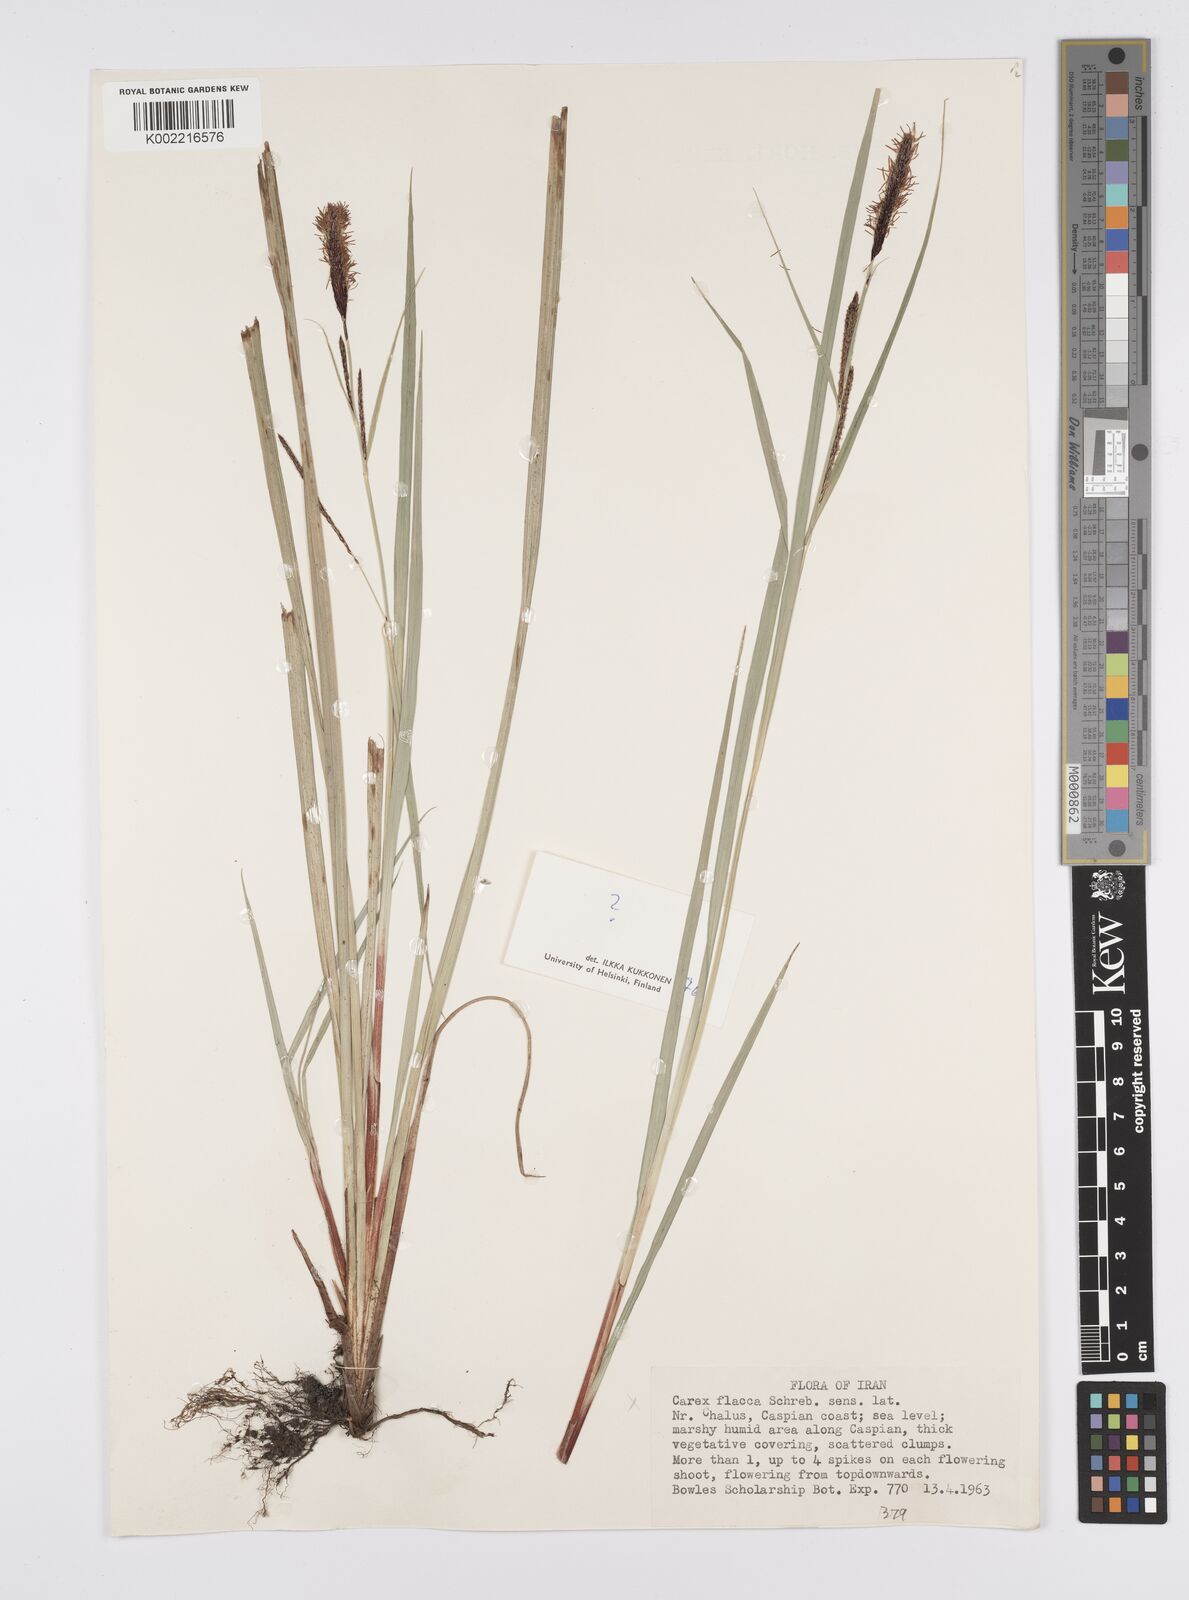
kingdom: Plantae
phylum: Tracheophyta
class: Liliopsida
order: Poales
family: Cyperaceae
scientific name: Cyperaceae
